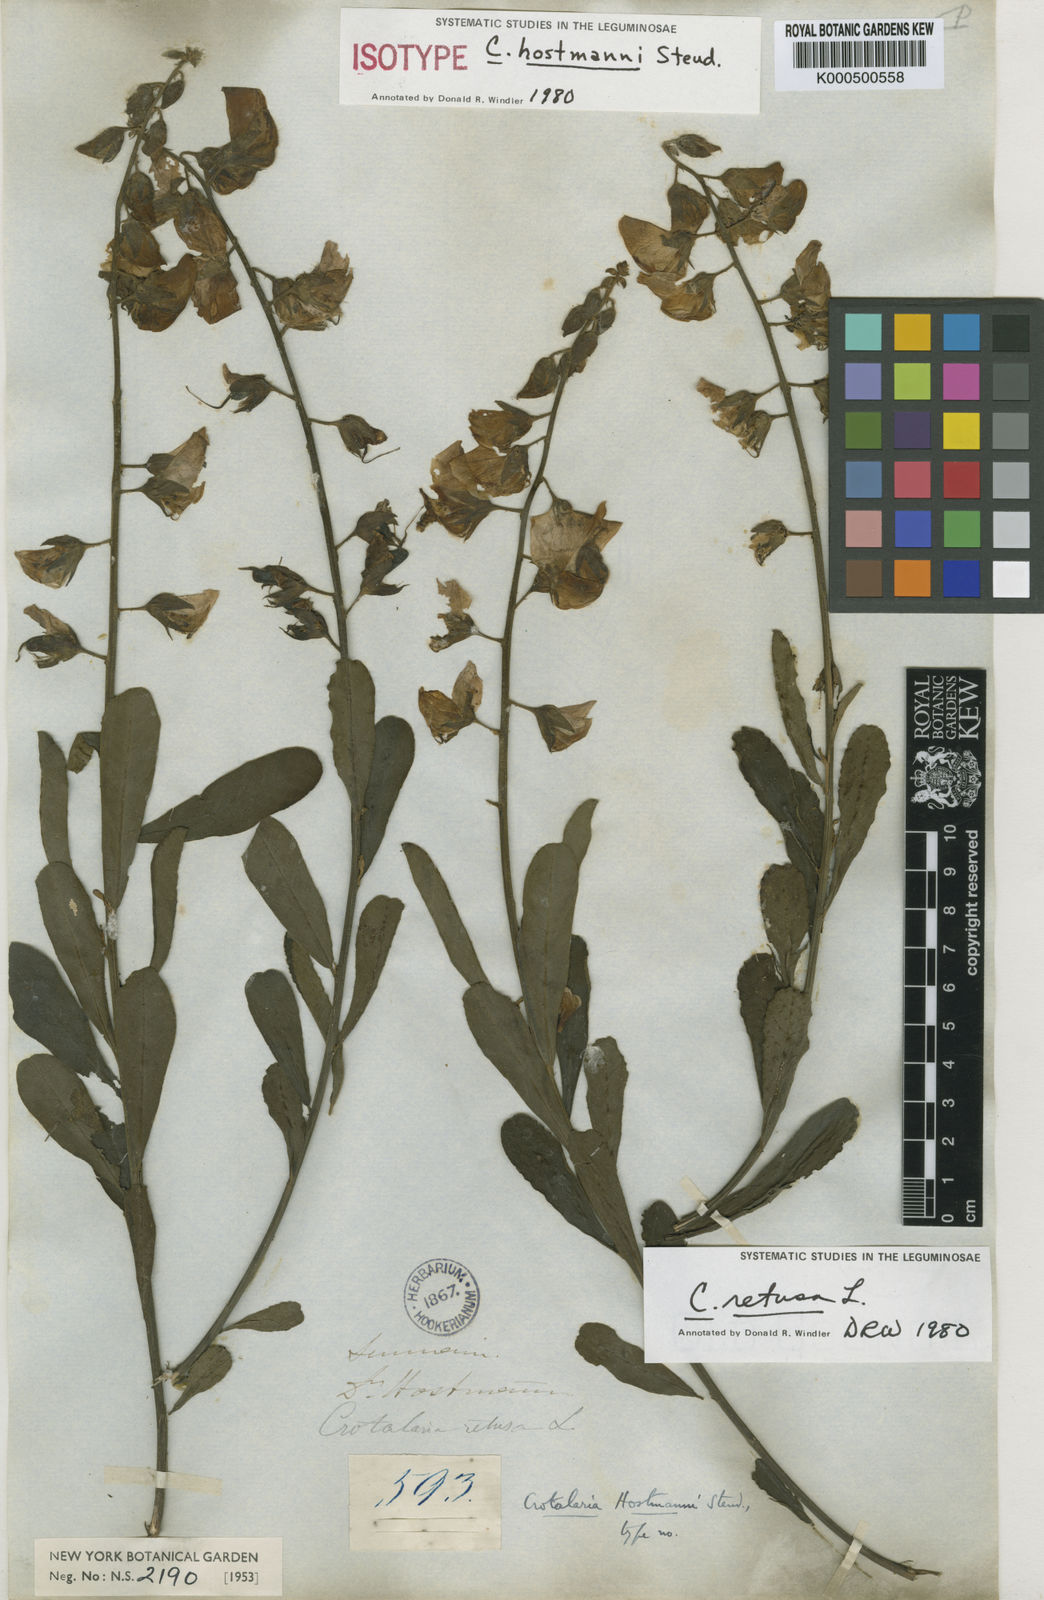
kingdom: Plantae
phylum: Tracheophyta
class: Magnoliopsida
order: Fabales
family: Fabaceae
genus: Crotalaria
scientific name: Crotalaria retusa
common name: Rattleweed
